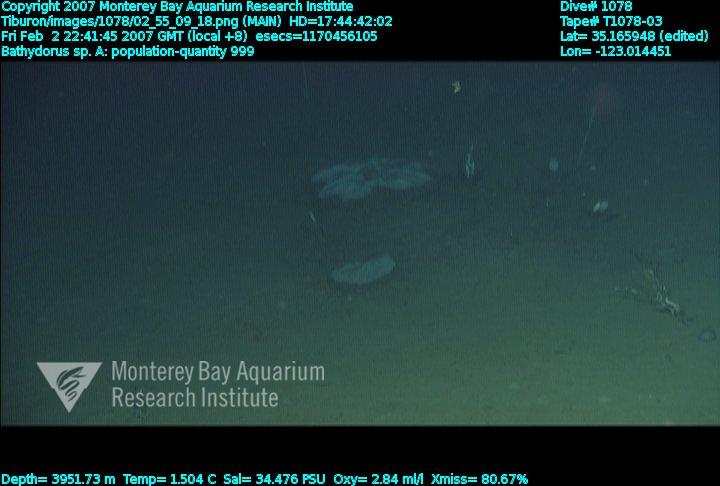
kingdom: Animalia
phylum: Porifera
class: Hexactinellida
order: Lyssacinosida
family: Rossellidae
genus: Bathydorus
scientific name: Bathydorus laniger
